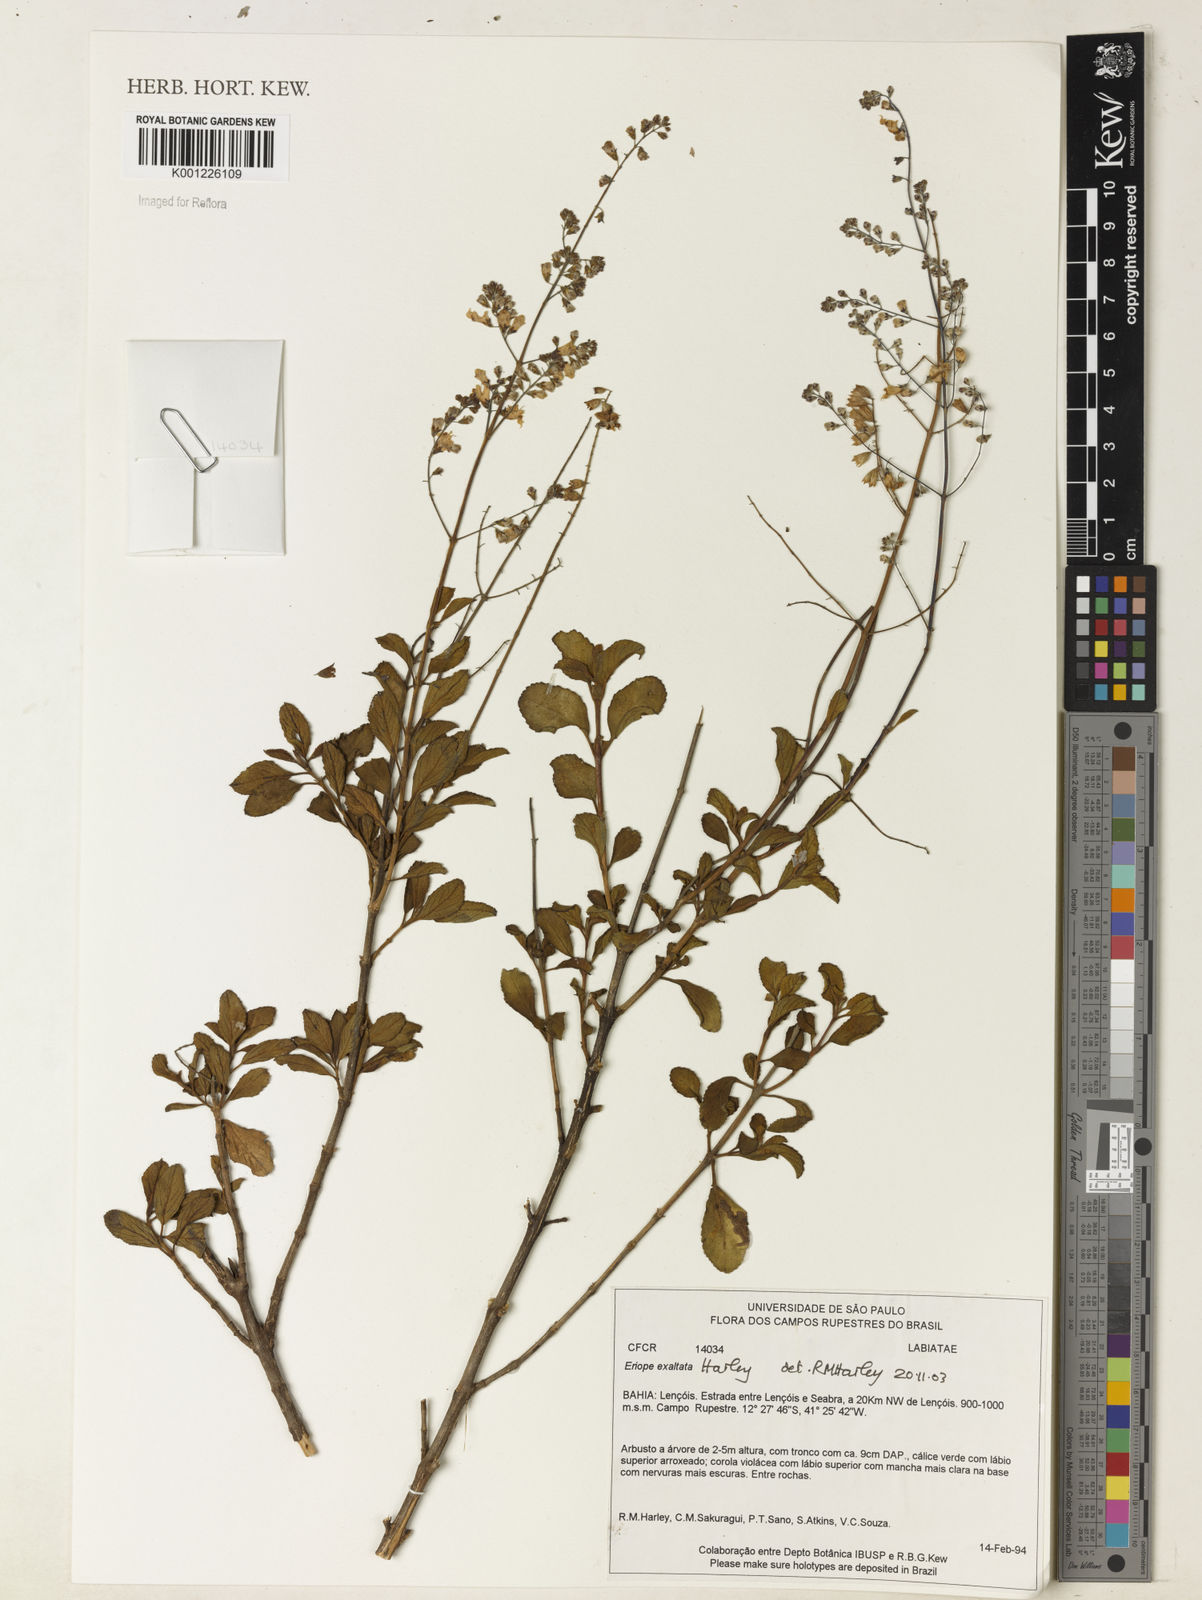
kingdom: Plantae
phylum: Tracheophyta
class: Magnoliopsida
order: Lamiales
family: Lamiaceae
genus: Eriope
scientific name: Eriope exaltata
